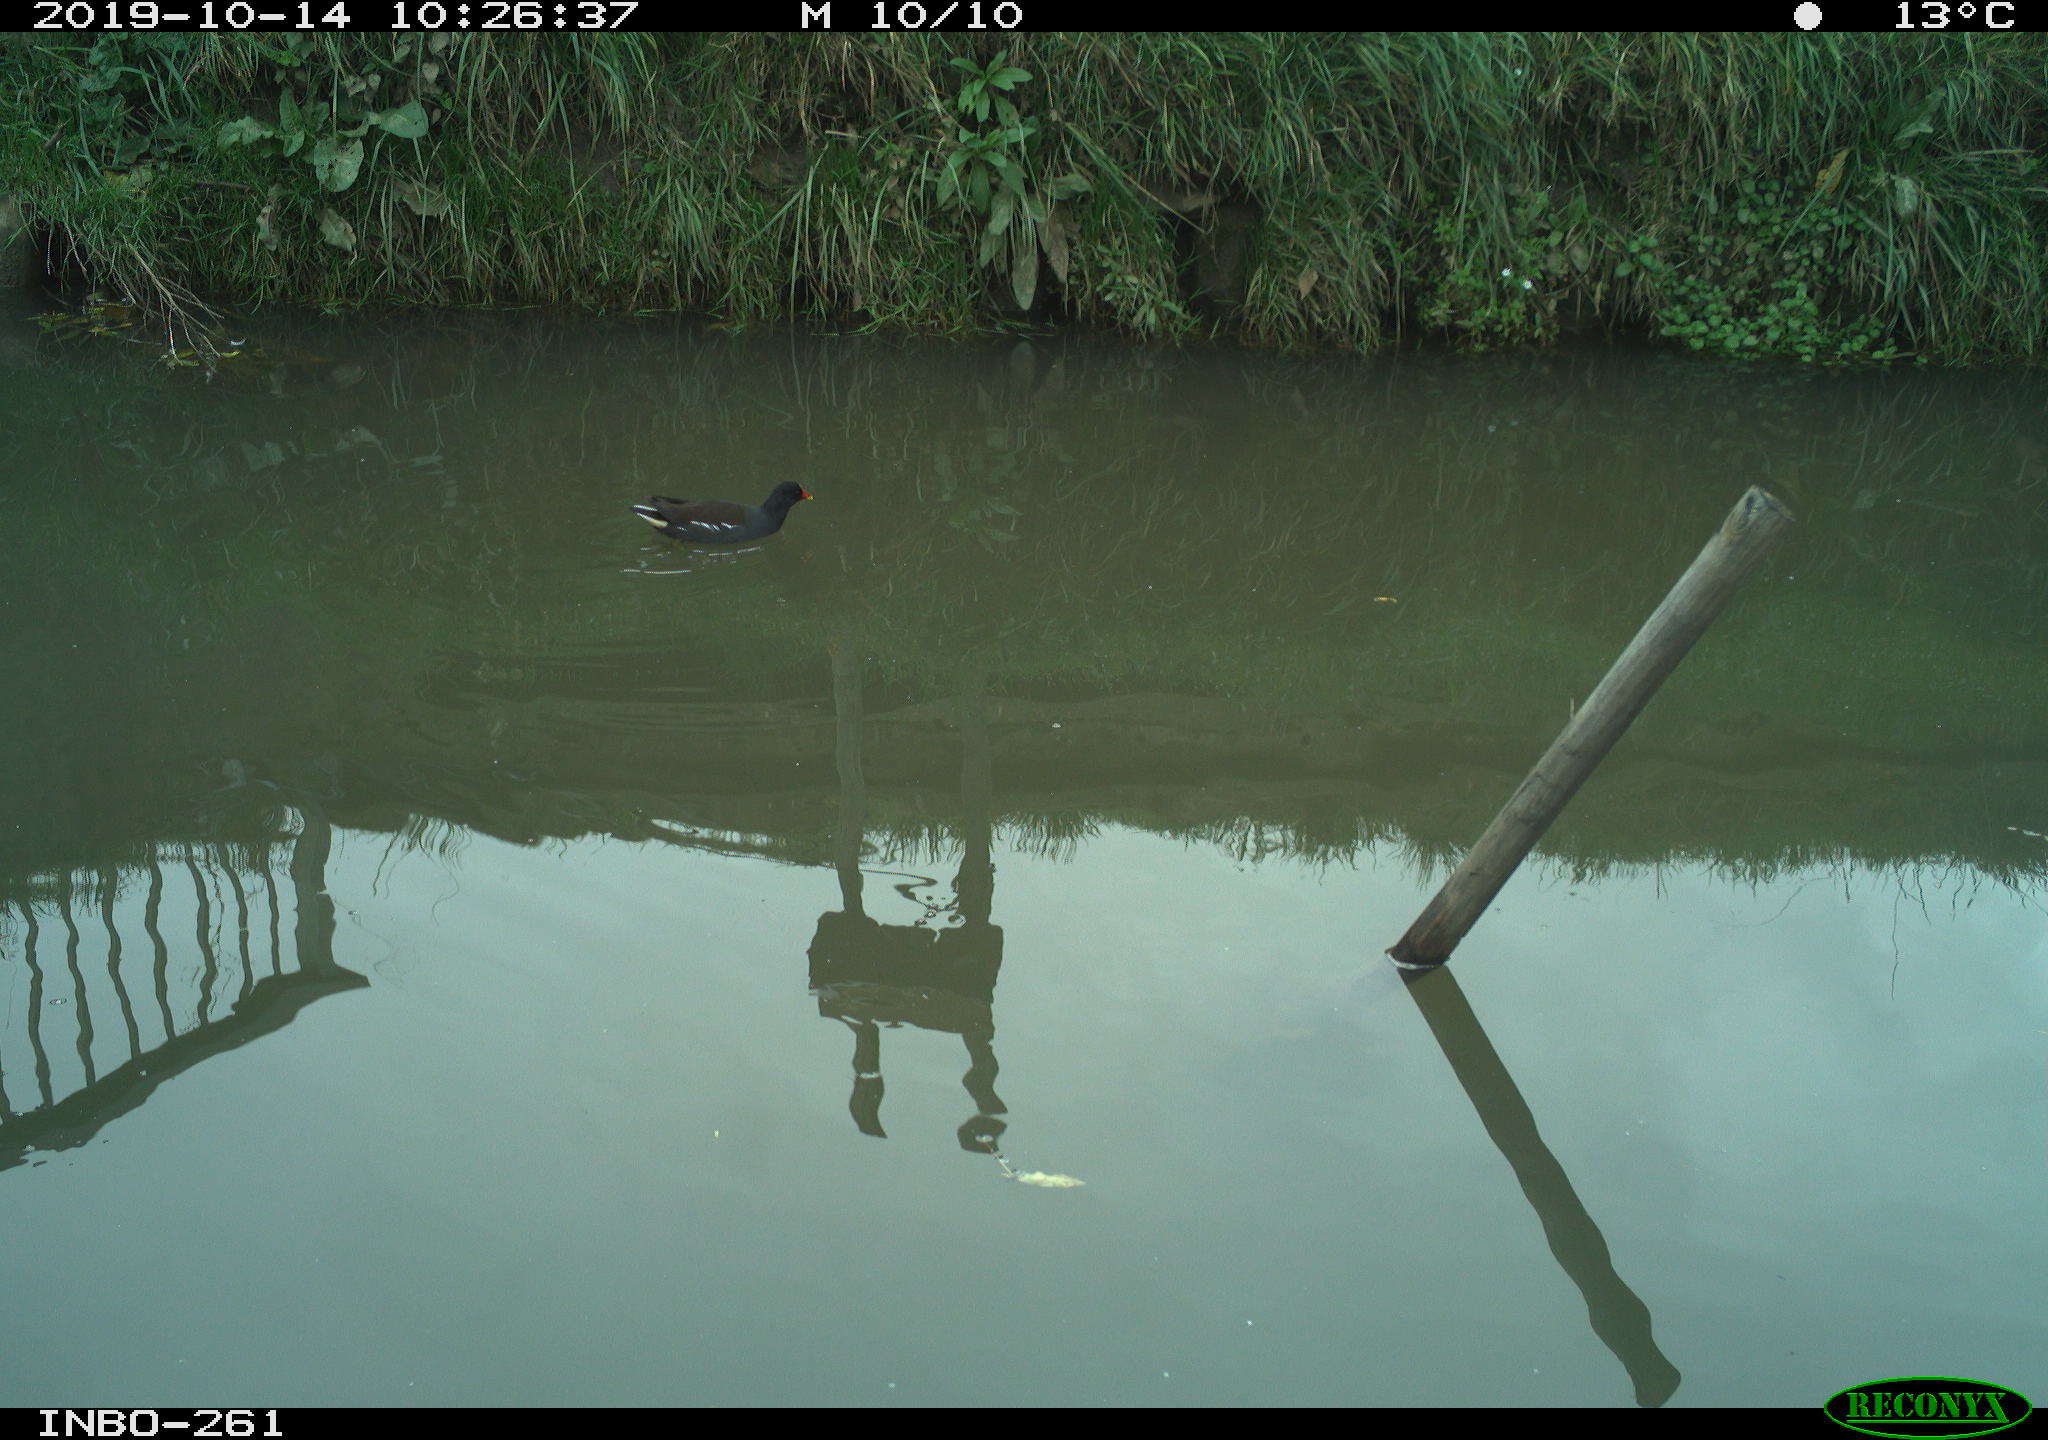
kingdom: Animalia
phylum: Chordata
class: Aves
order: Gruiformes
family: Rallidae
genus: Gallinula
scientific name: Gallinula chloropus
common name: Common moorhen
